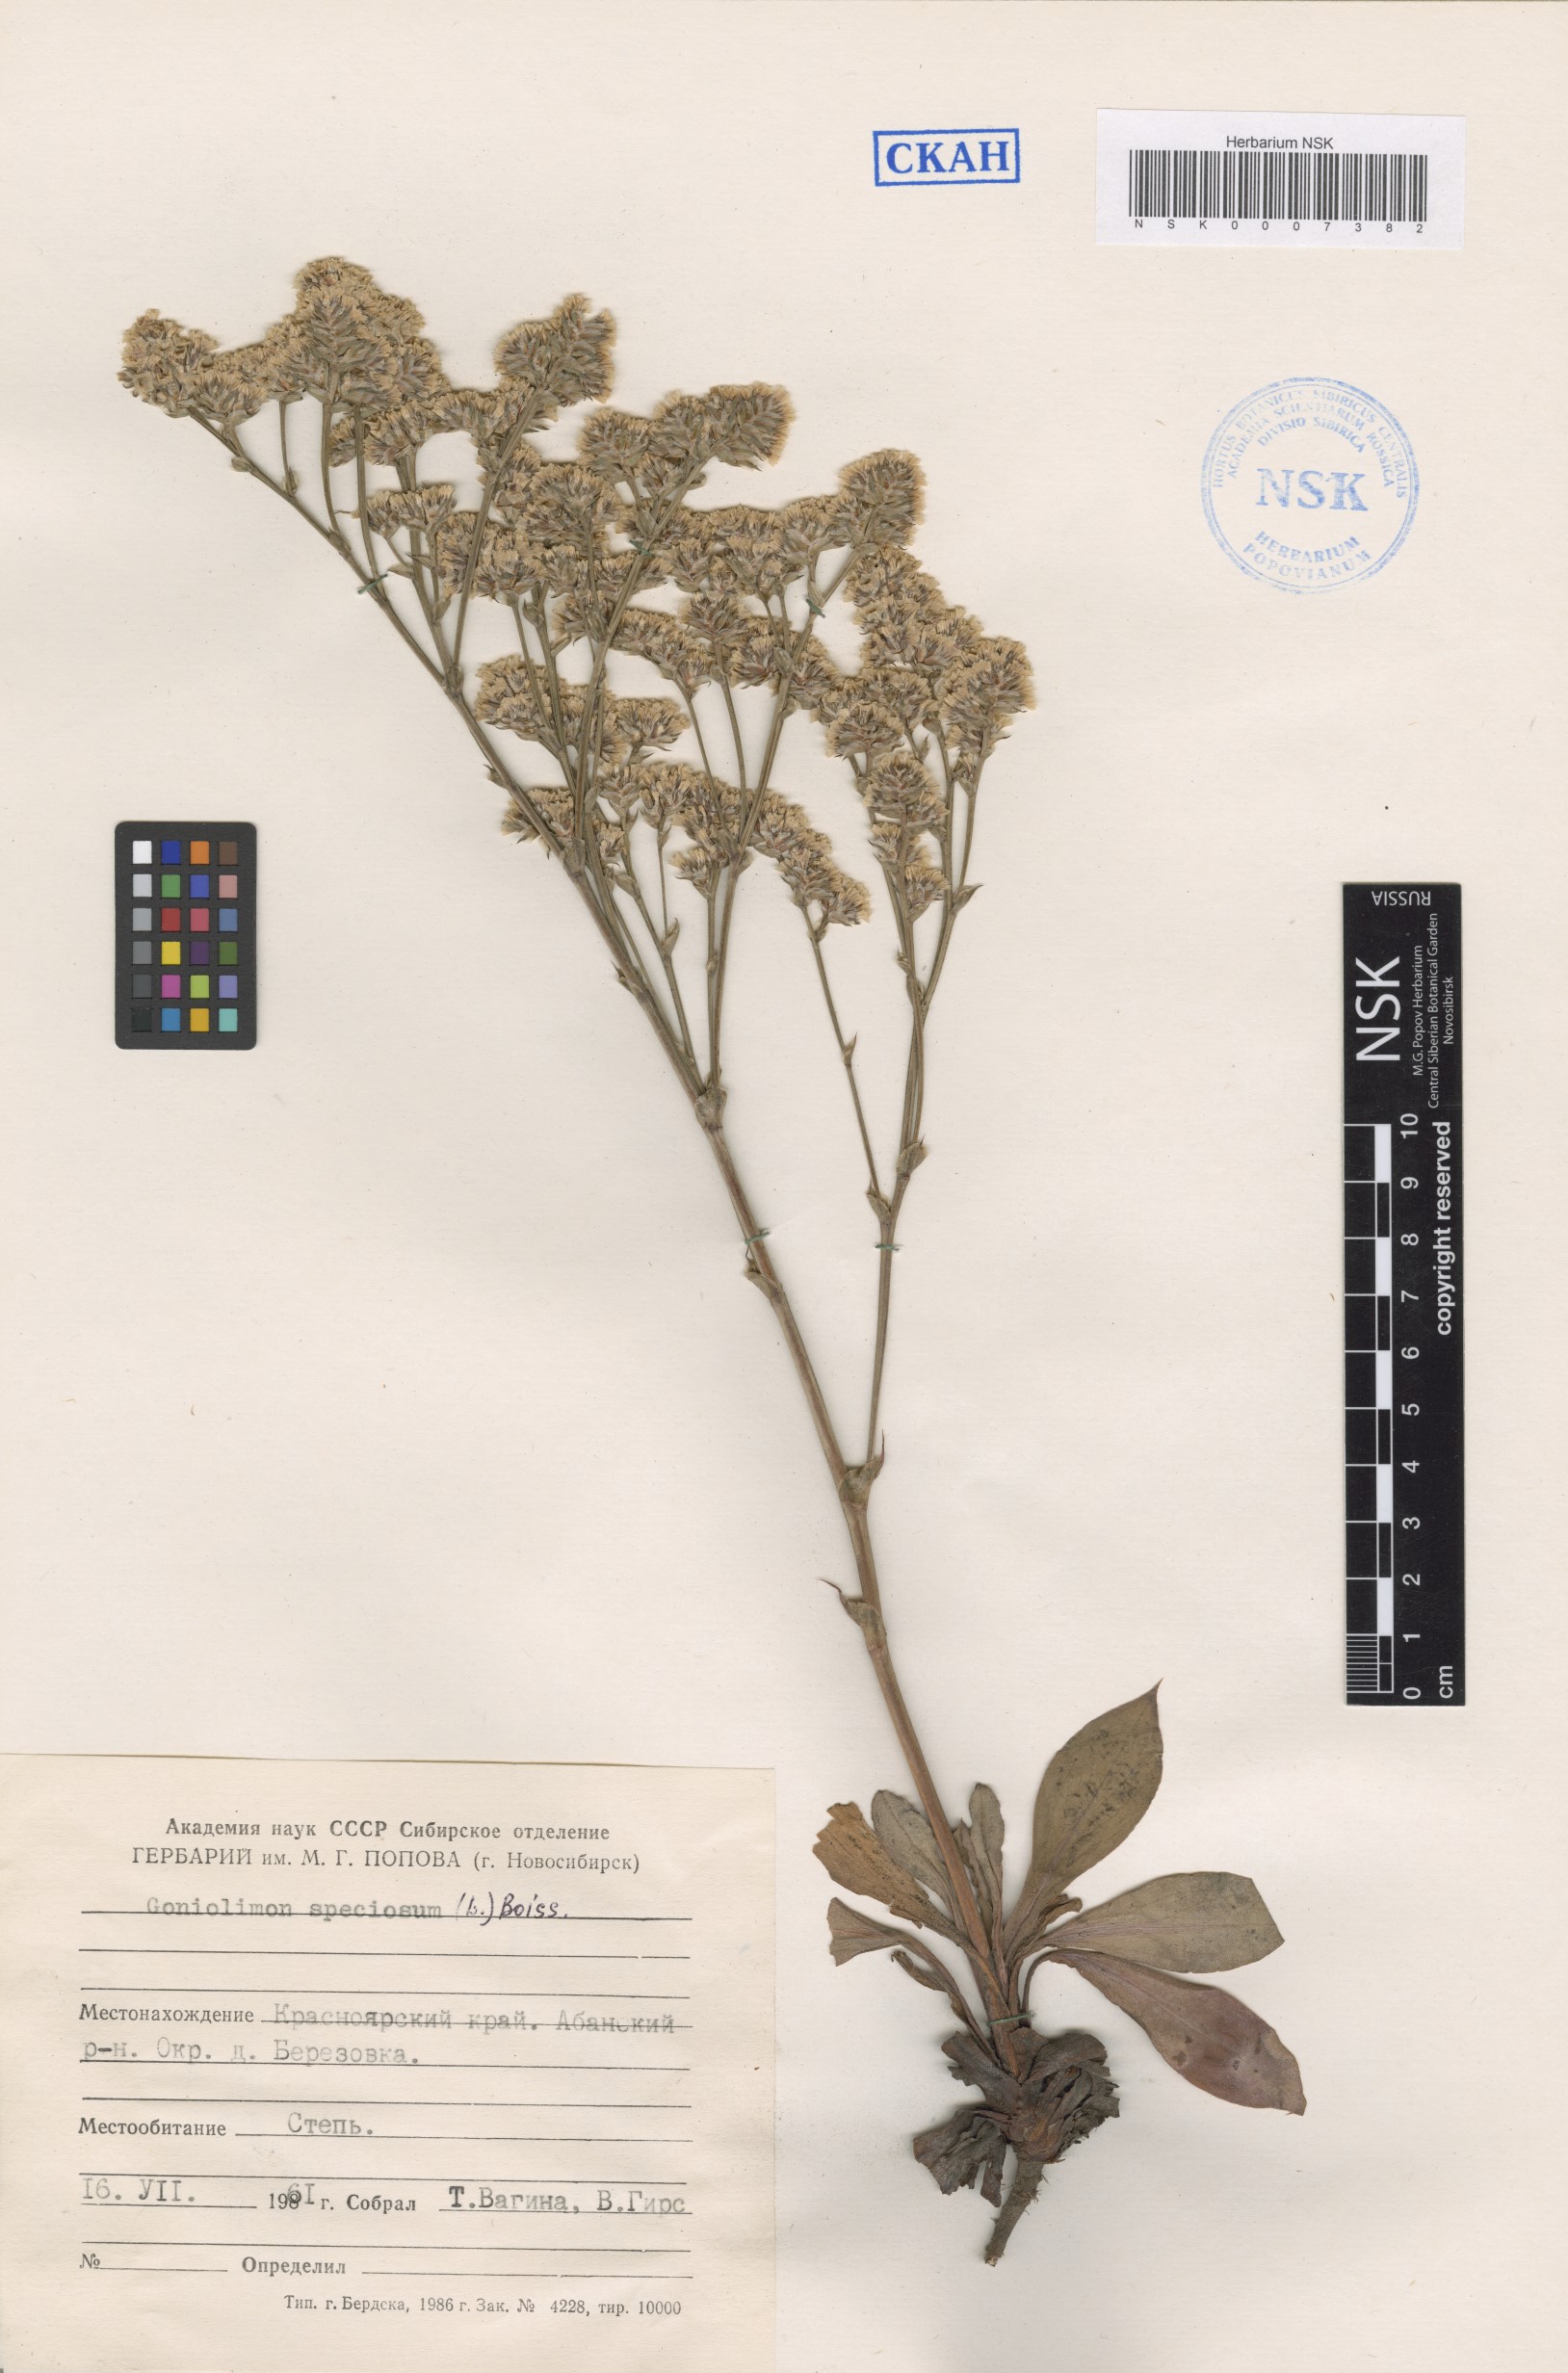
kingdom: Plantae
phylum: Tracheophyta
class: Magnoliopsida
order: Caryophyllales
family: Plumbaginaceae
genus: Goniolimon
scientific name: Goniolimon speciosum
